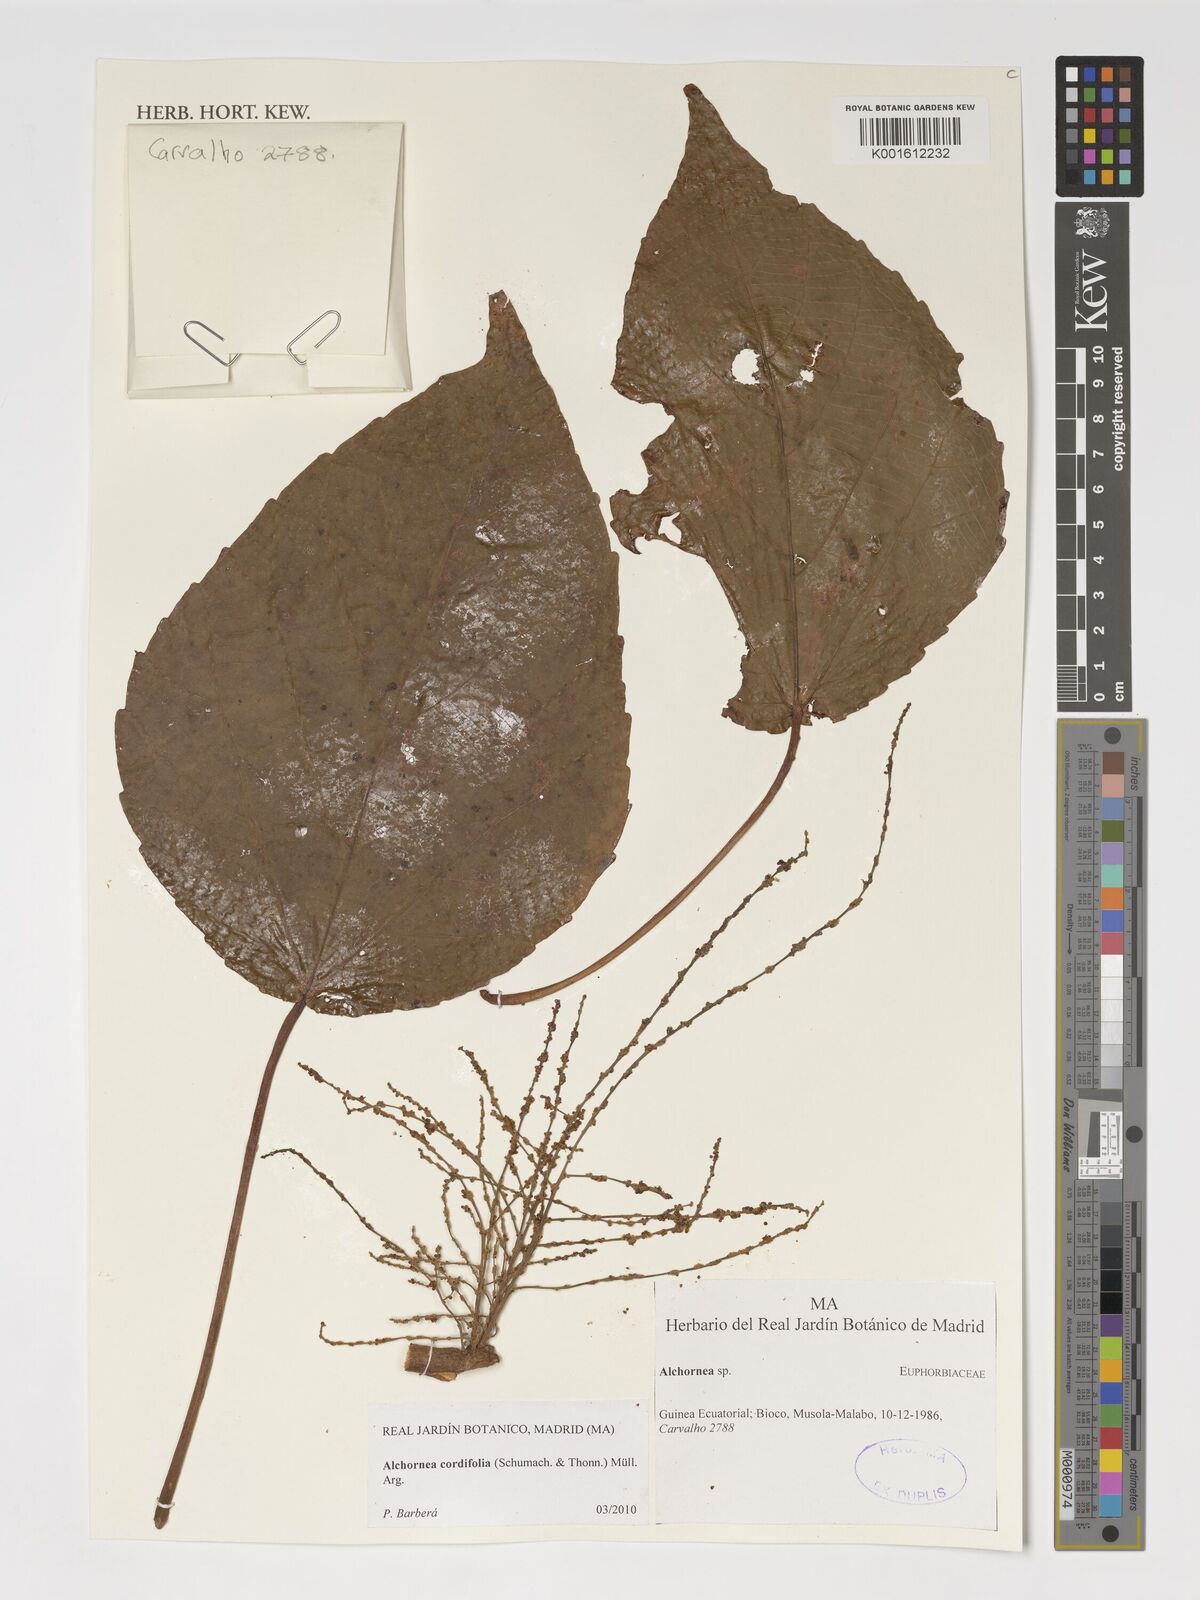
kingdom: Plantae
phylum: Tracheophyta
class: Magnoliopsida
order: Malpighiales
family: Euphorbiaceae
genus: Alchornea
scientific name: Alchornea cordifolia
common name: Christmasbush
